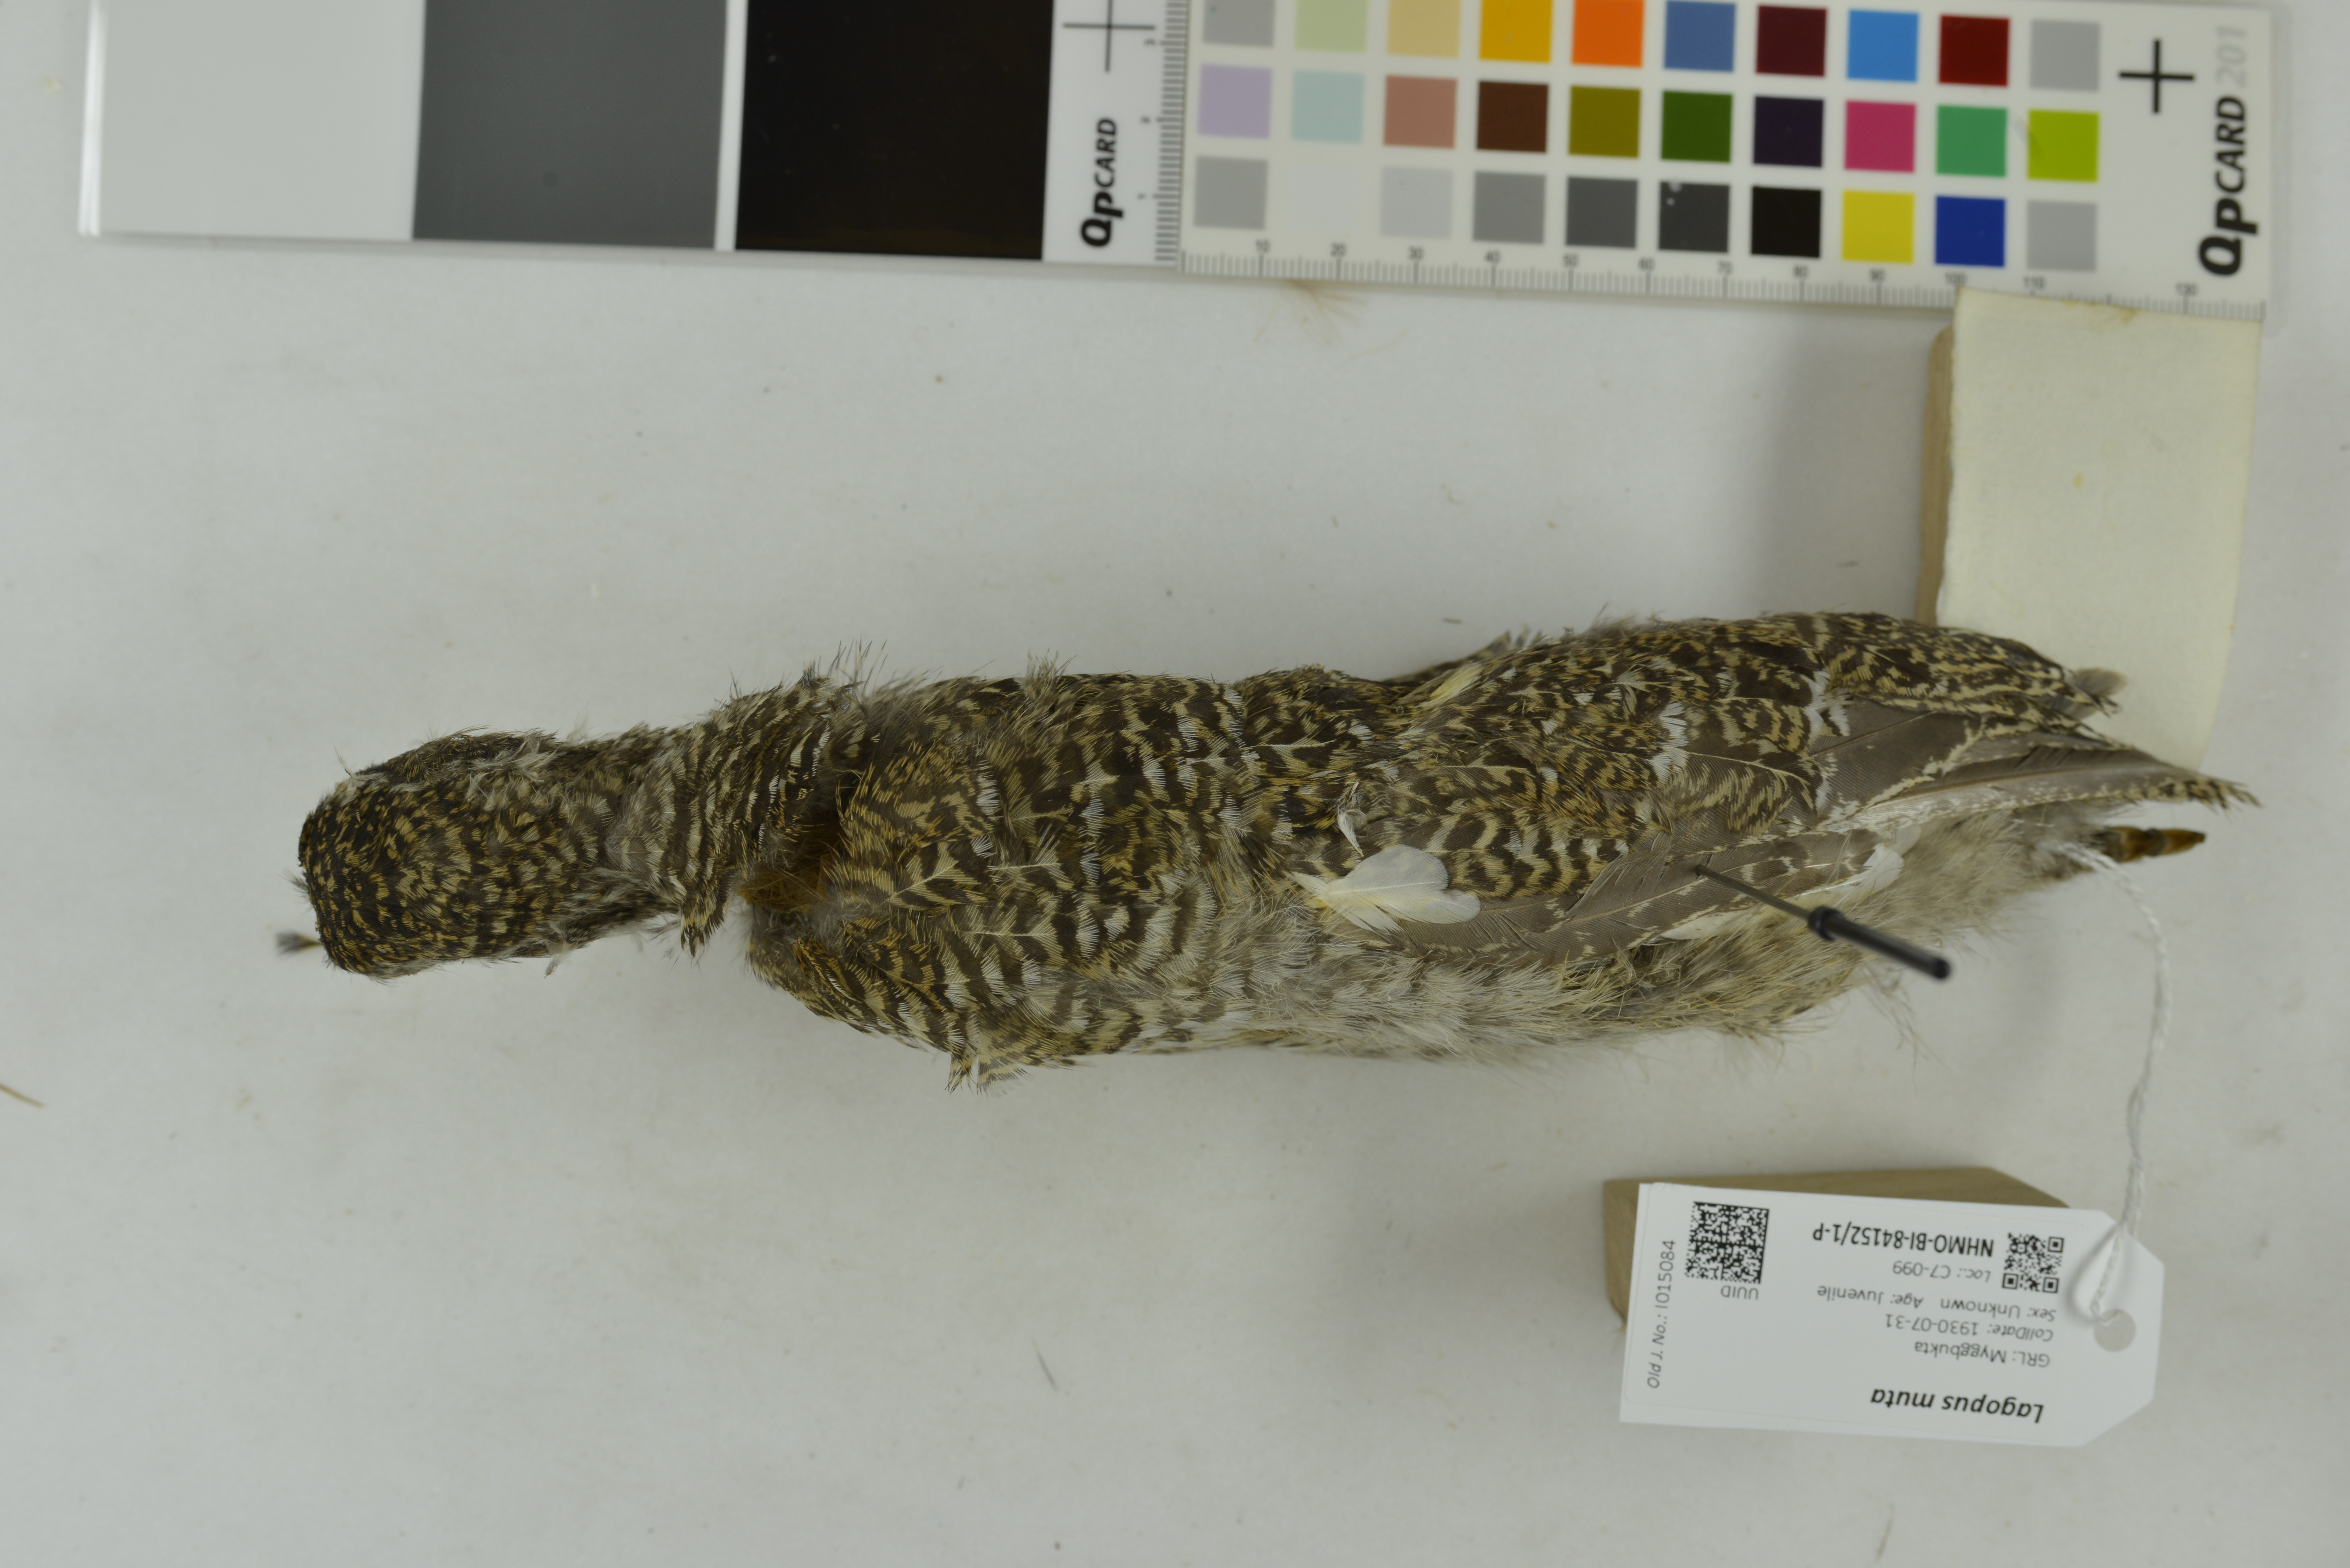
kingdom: Animalia
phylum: Chordata
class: Aves
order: Galliformes
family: Phasianidae
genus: Lagopus
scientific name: Lagopus muta
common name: Rock ptarmigan
